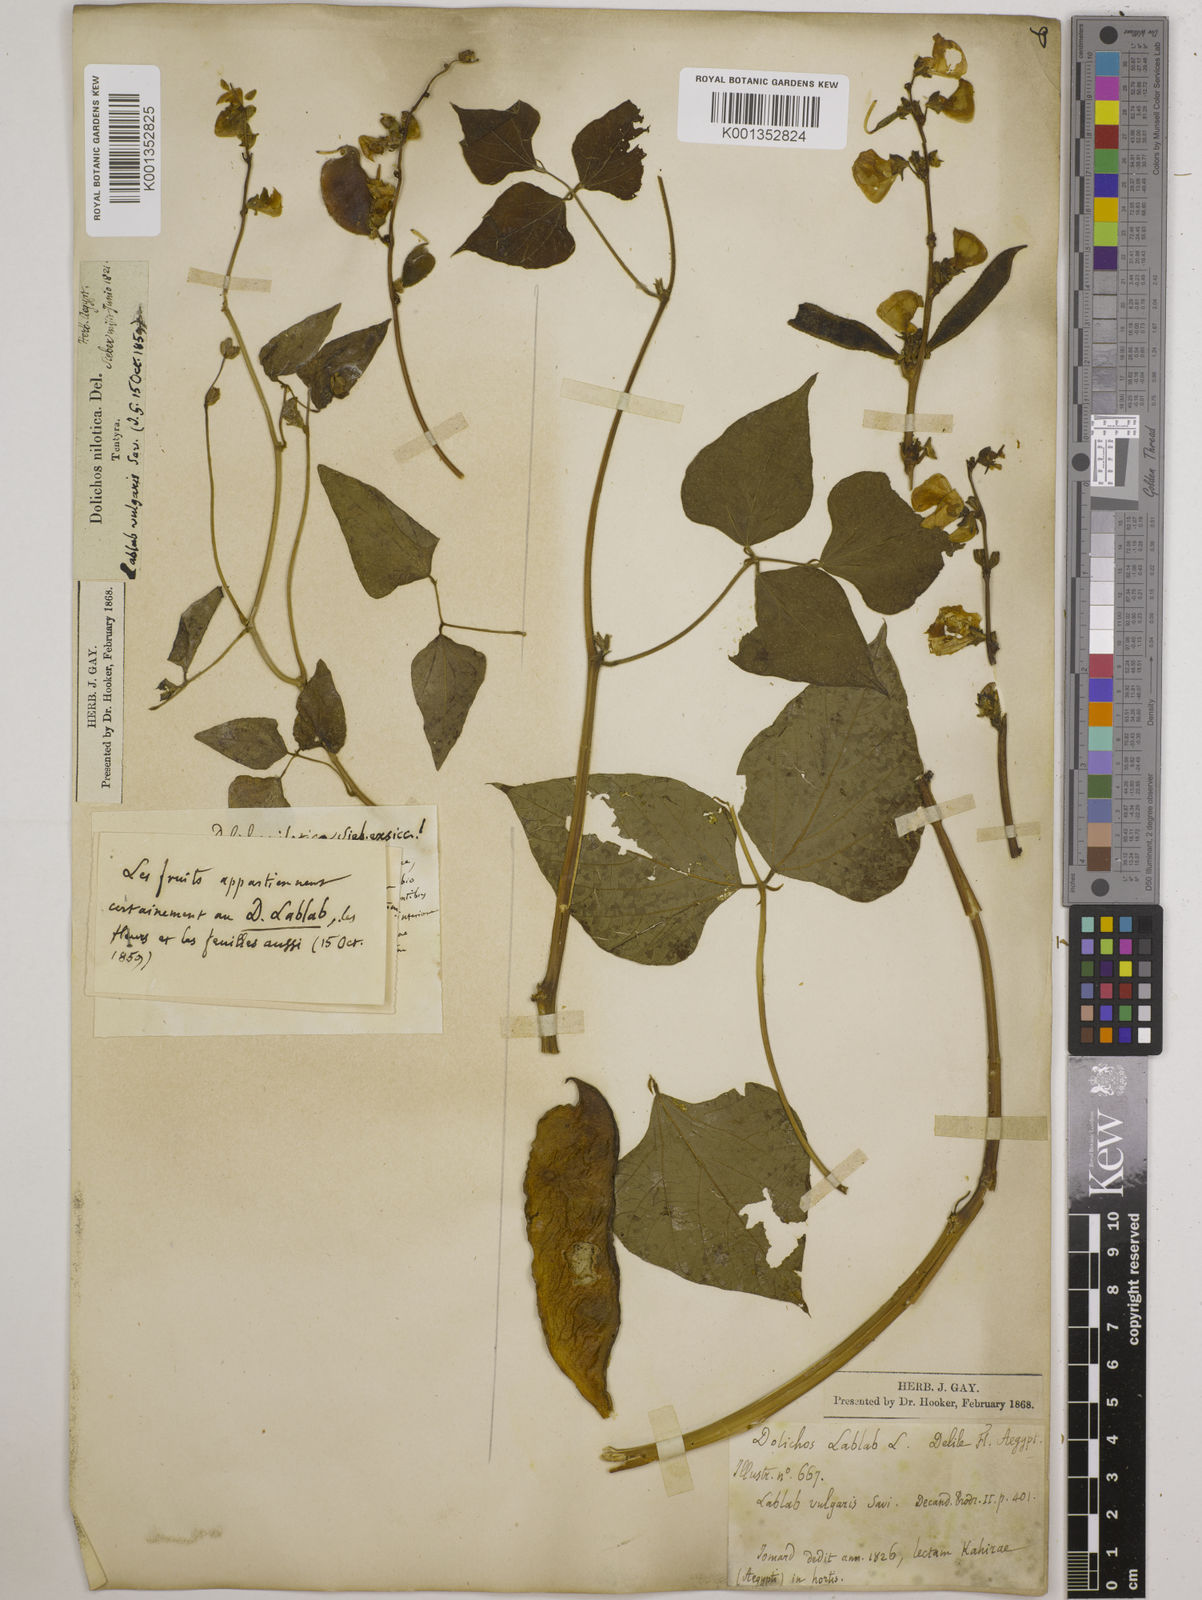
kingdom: Plantae
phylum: Tracheophyta
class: Magnoliopsida
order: Fabales
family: Fabaceae
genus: Lablab
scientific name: Lablab purpureus
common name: Lablab-bean
